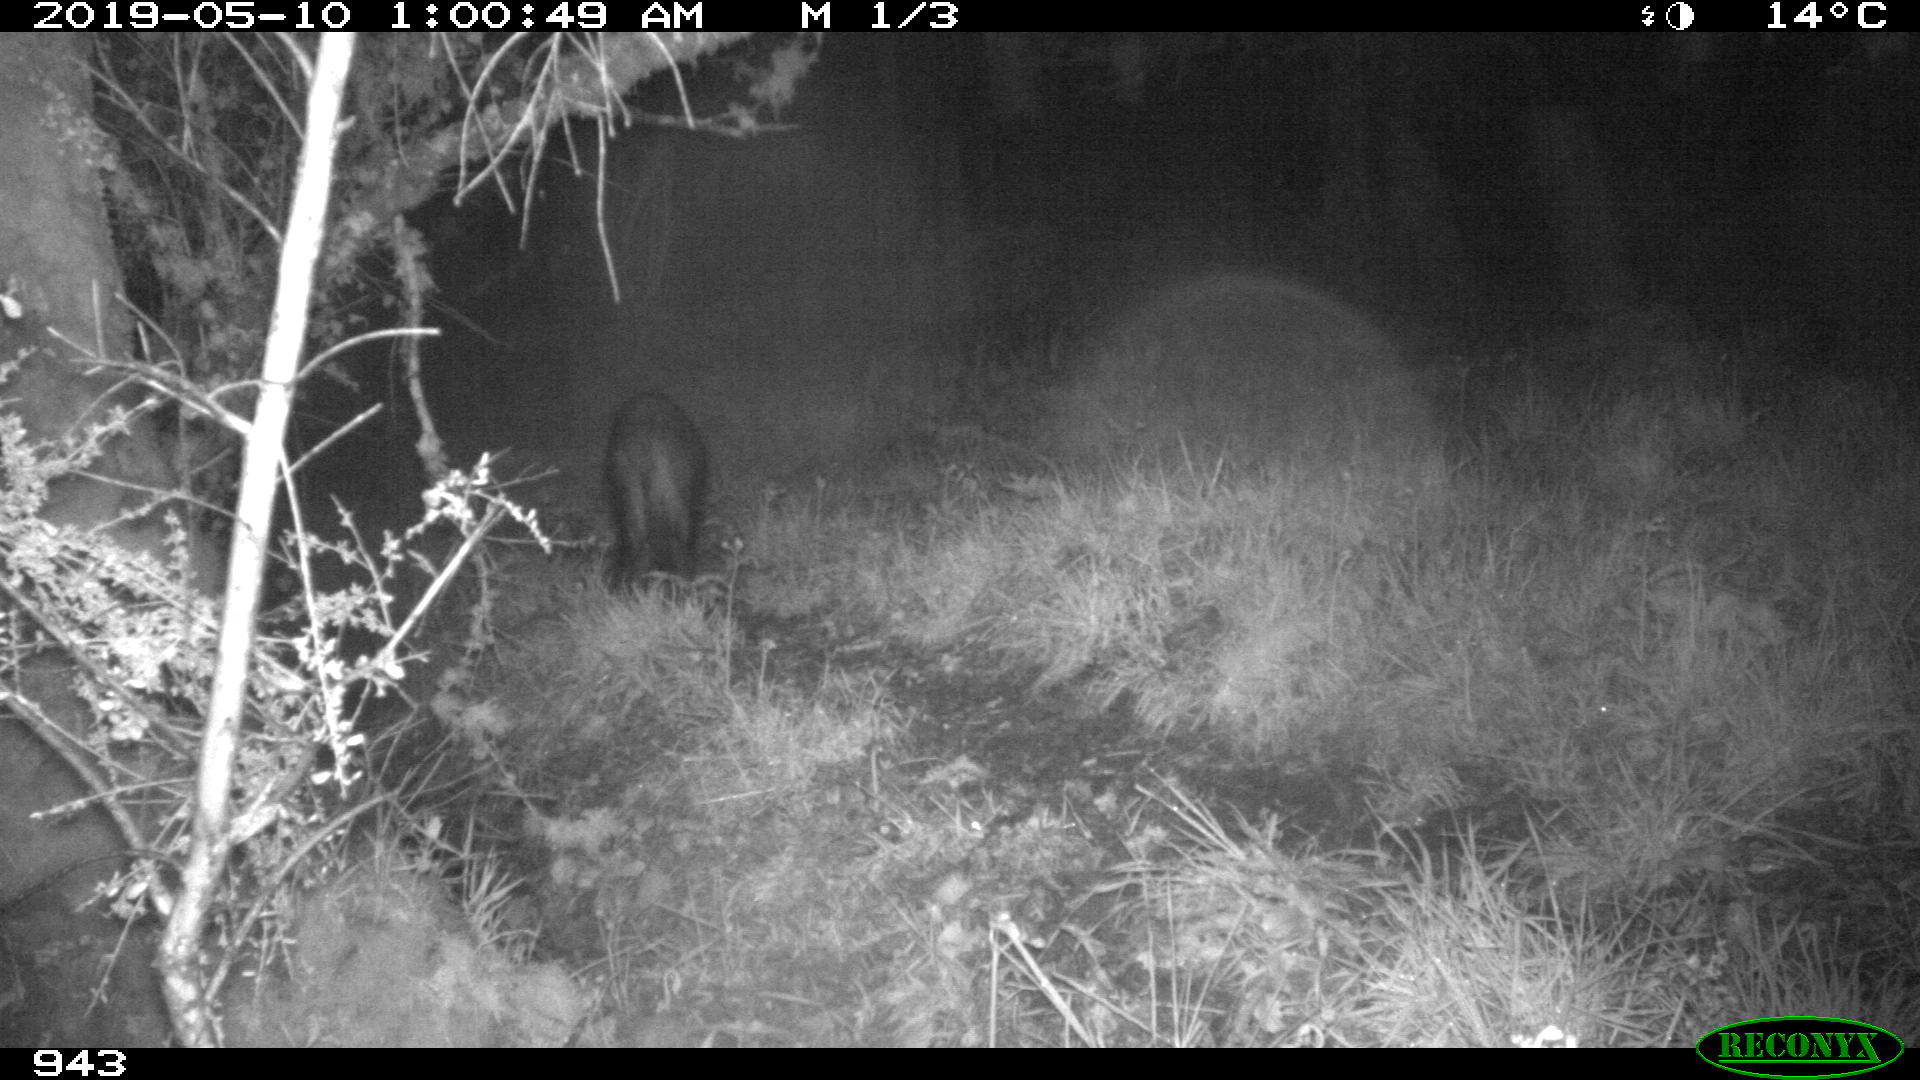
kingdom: Animalia
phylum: Chordata
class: Mammalia
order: Artiodactyla
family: Suidae
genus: Sus
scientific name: Sus scrofa
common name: Wild boar
